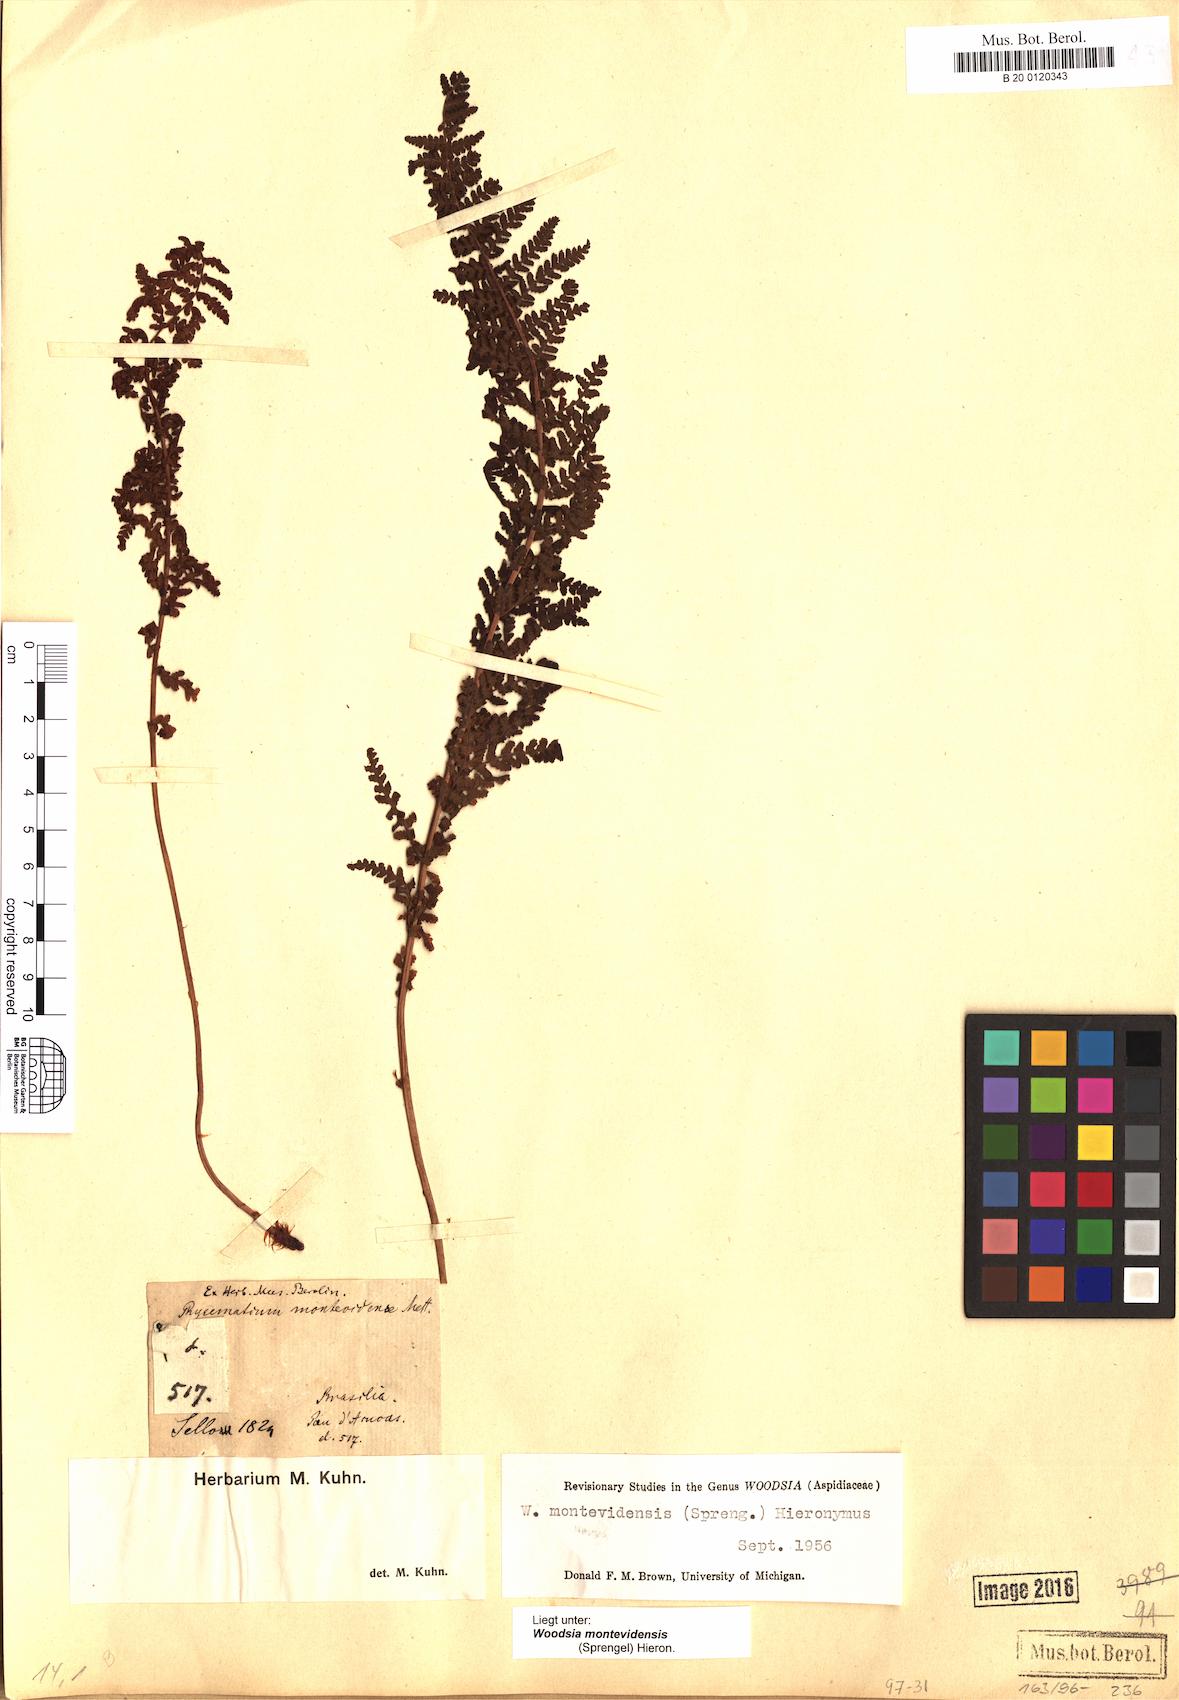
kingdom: Plantae
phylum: Tracheophyta
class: Polypodiopsida
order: Polypodiales
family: Woodsiaceae
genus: Physematium
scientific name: Physematium montevidense
